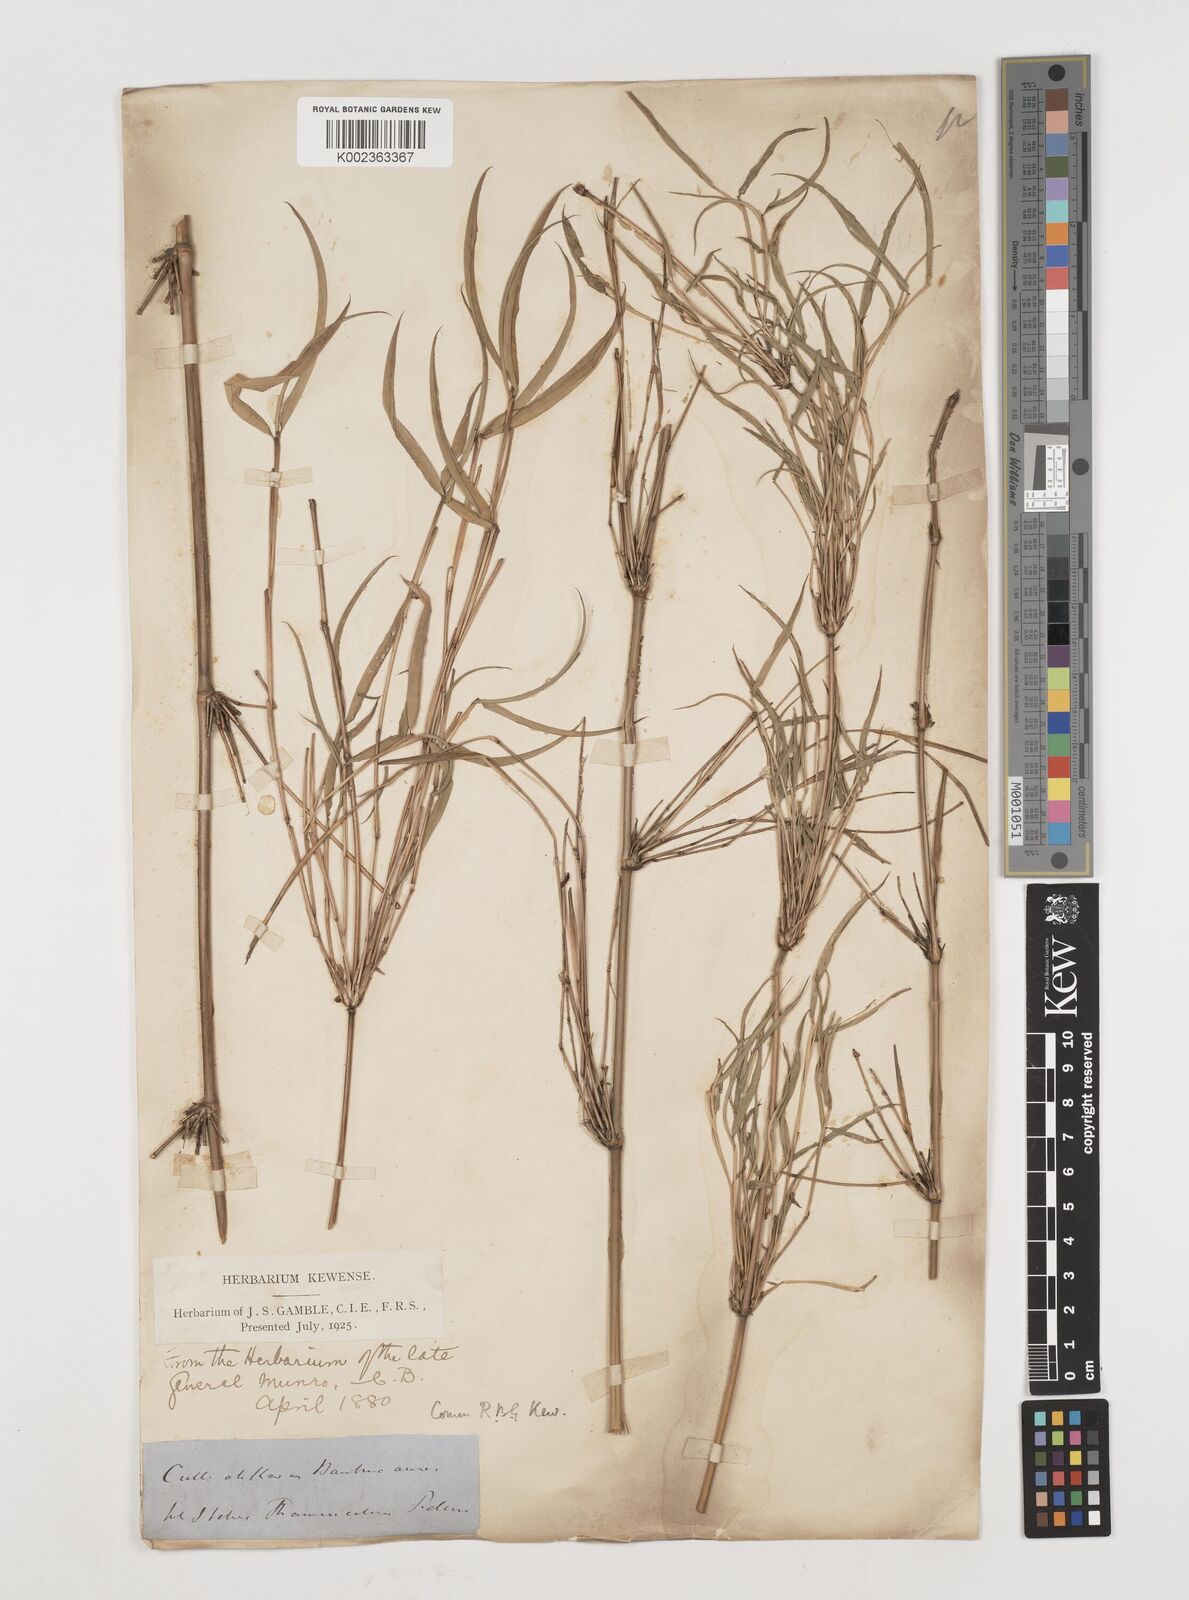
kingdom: Plantae
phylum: Tracheophyta
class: Liliopsida
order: Poales
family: Poaceae
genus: Himalayacalamus
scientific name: Himalayacalamus falconeri
